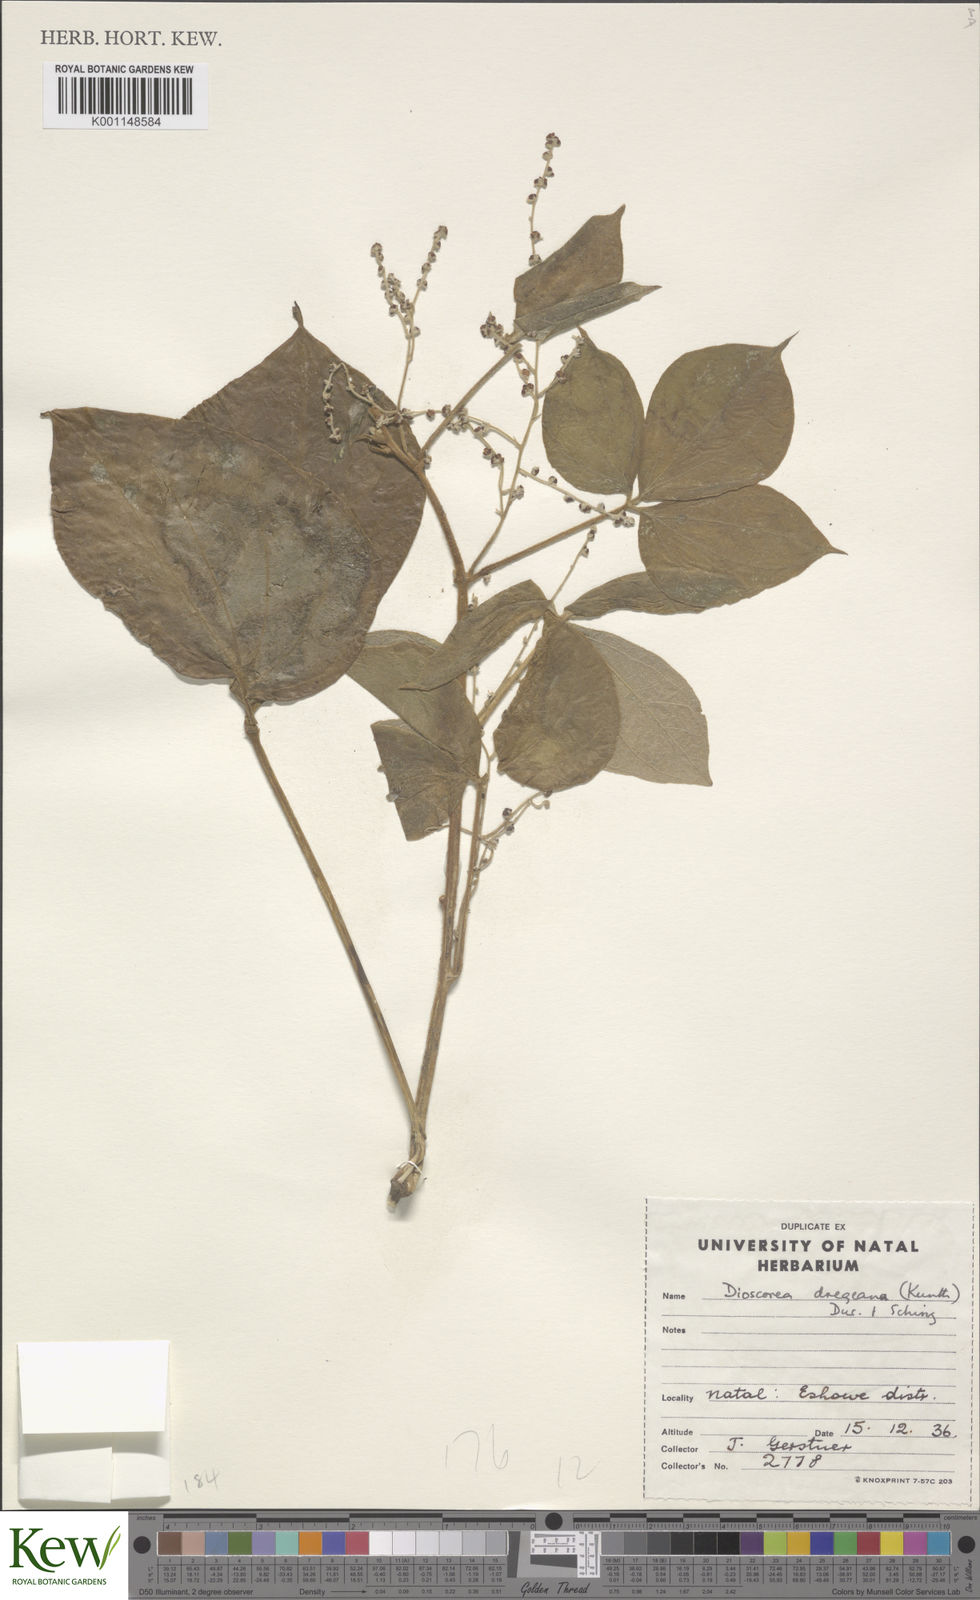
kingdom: Plantae
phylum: Tracheophyta
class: Liliopsida
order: Dioscoreales
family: Dioscoreaceae
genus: Dioscorea
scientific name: Dioscorea dregeana
